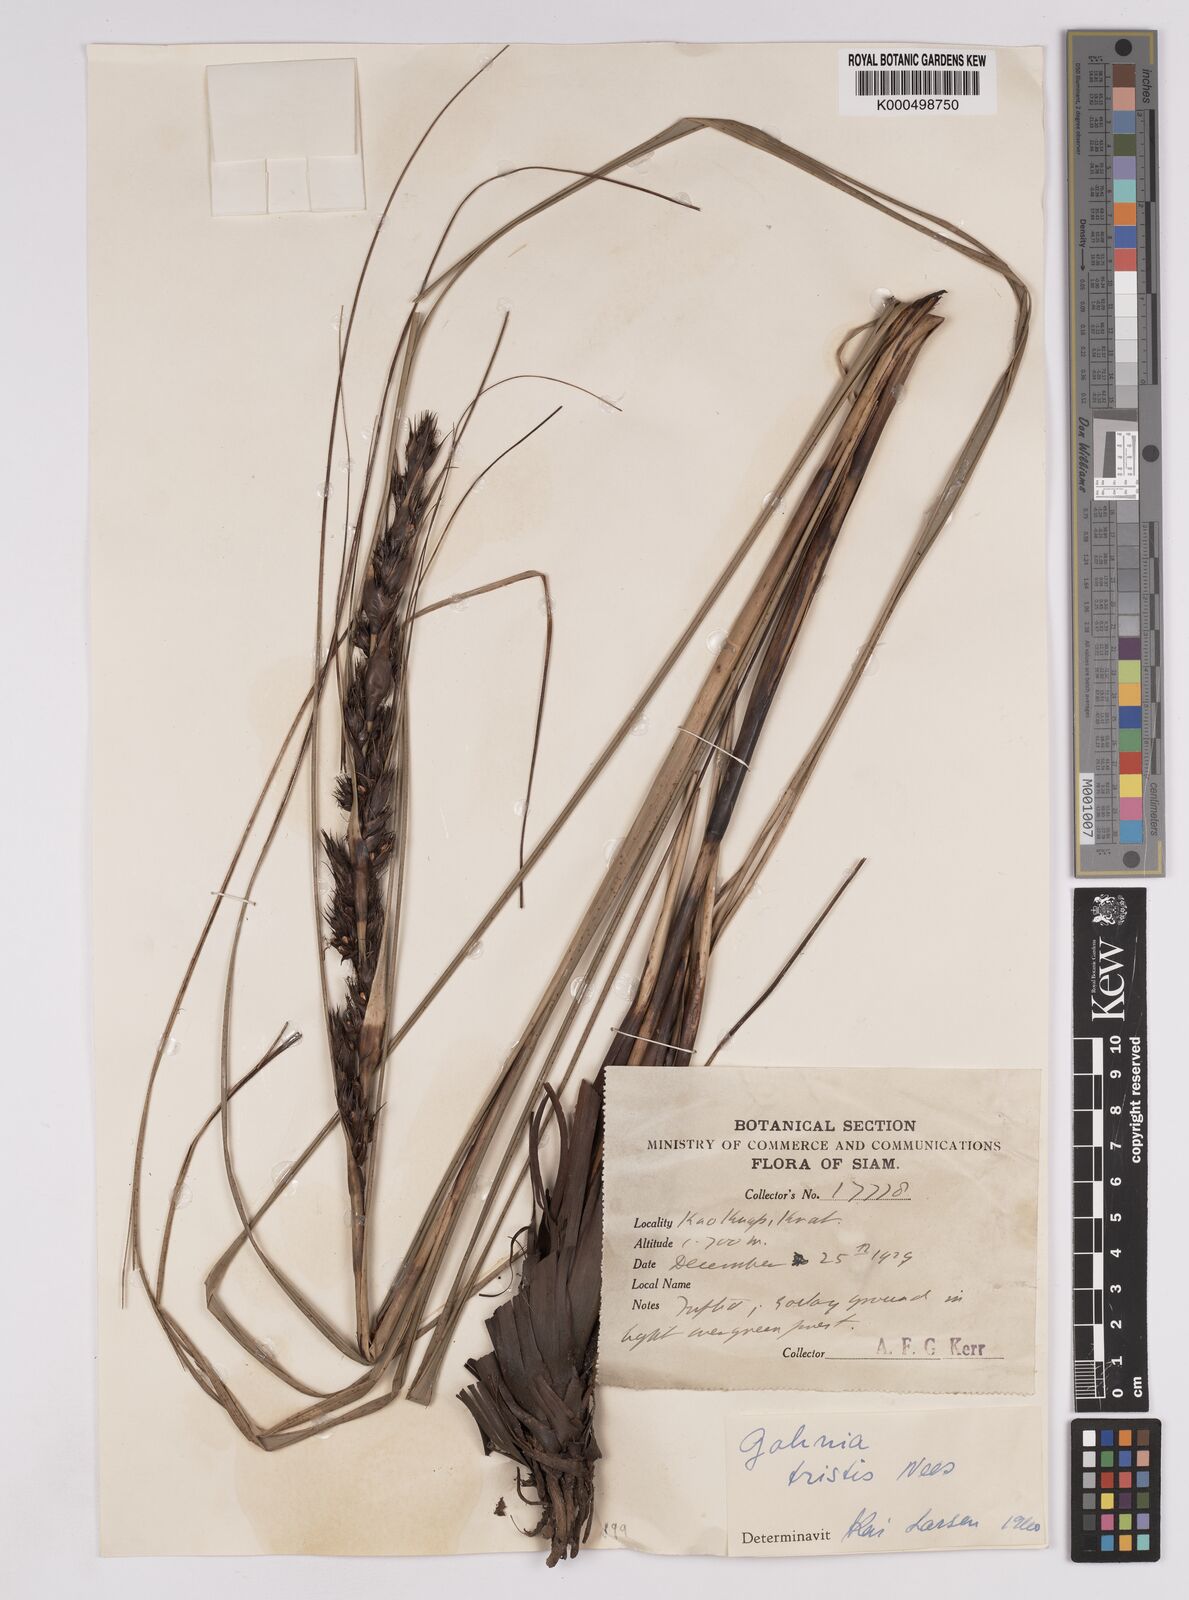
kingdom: Plantae
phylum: Tracheophyta
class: Liliopsida
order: Poales
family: Cyperaceae
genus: Gahnia
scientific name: Gahnia tristis
